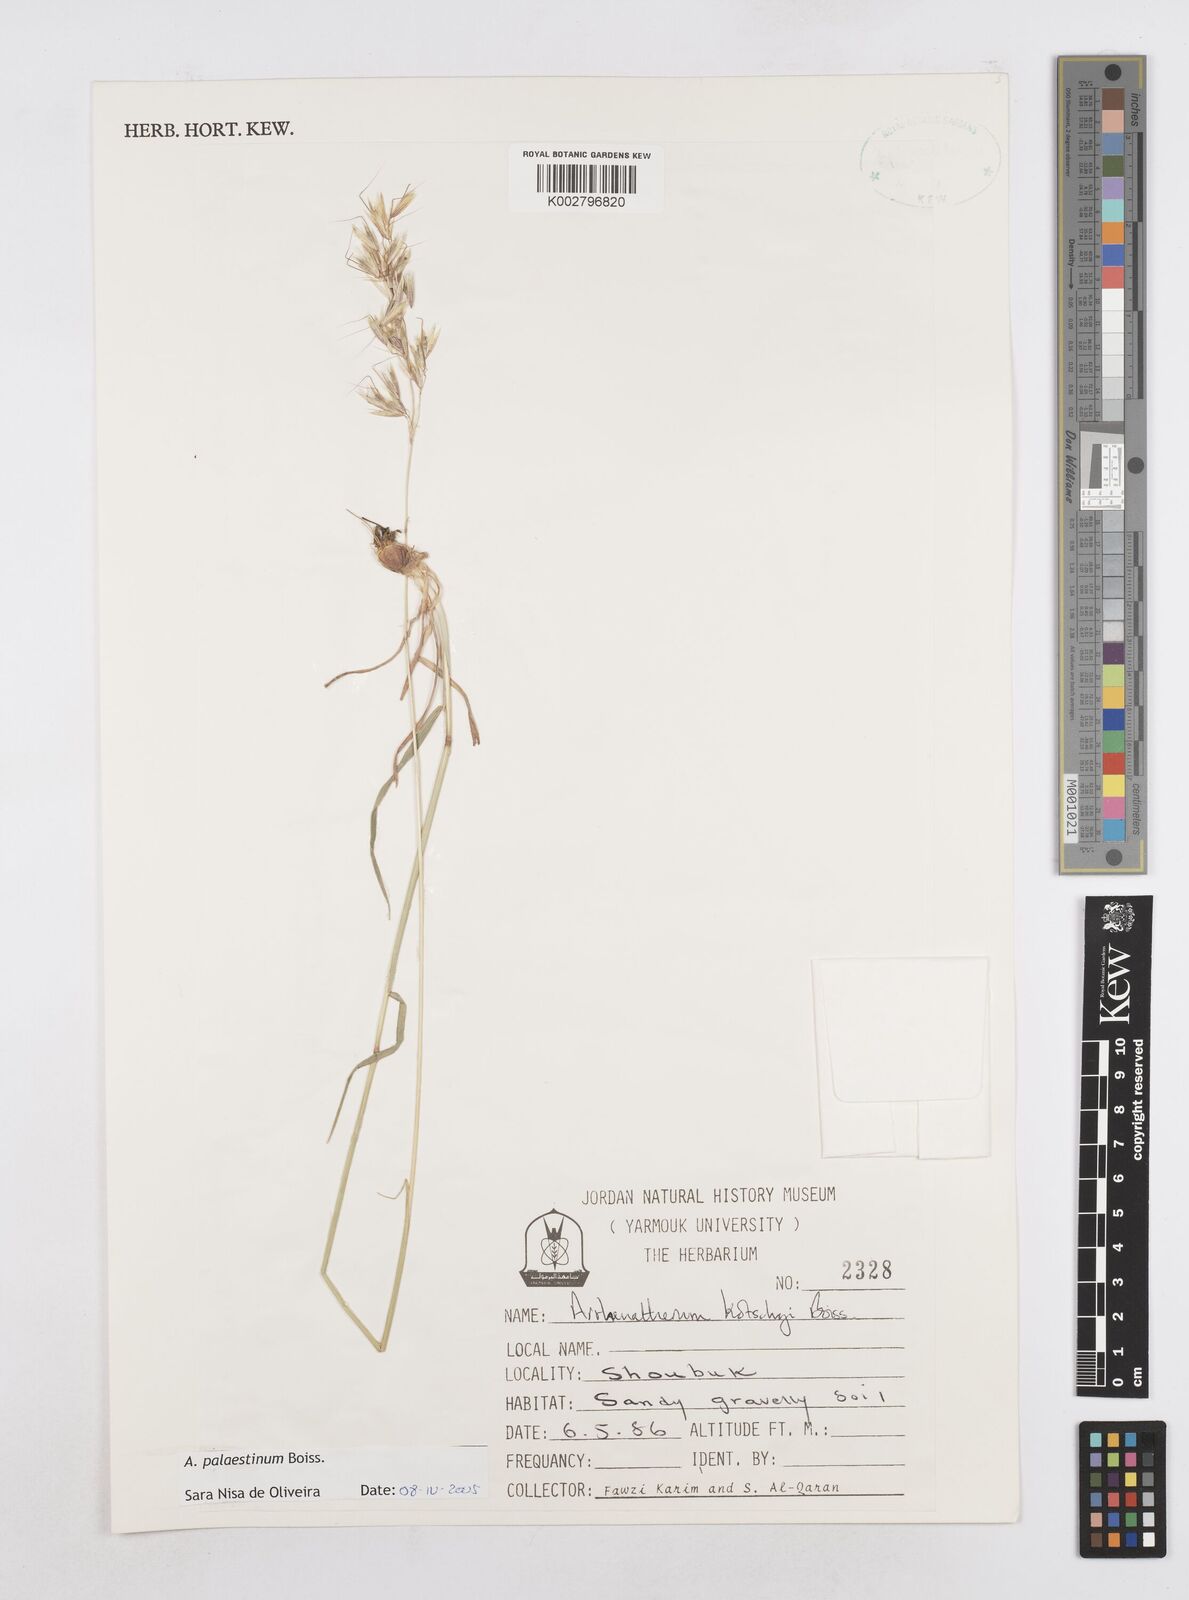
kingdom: Plantae
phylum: Tracheophyta
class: Liliopsida
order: Poales
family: Poaceae
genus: Arrhenatherum
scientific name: Arrhenatherum palaestinum
